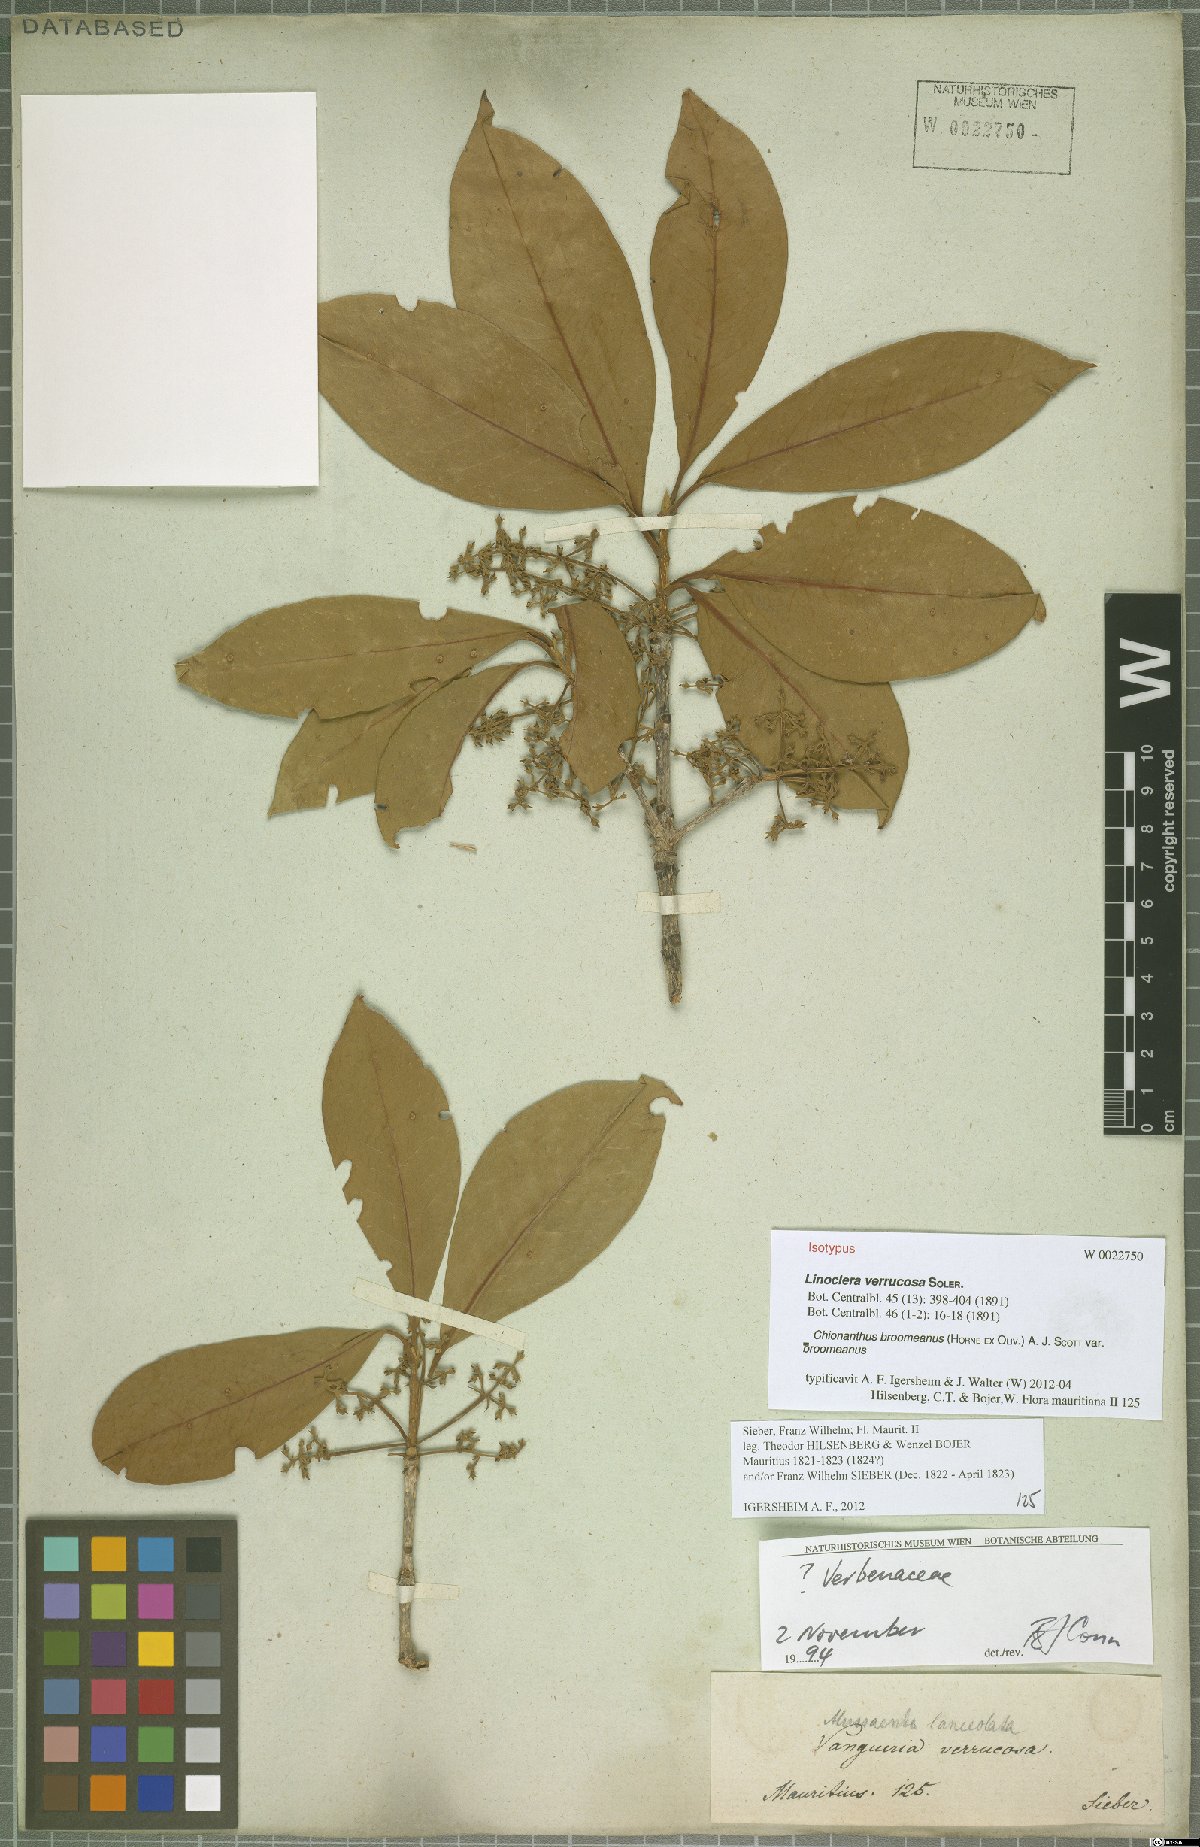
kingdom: Plantae
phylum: Tracheophyta
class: Magnoliopsida
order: Lamiales
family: Oleaceae
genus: Noronhia
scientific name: Noronhia broomeana
